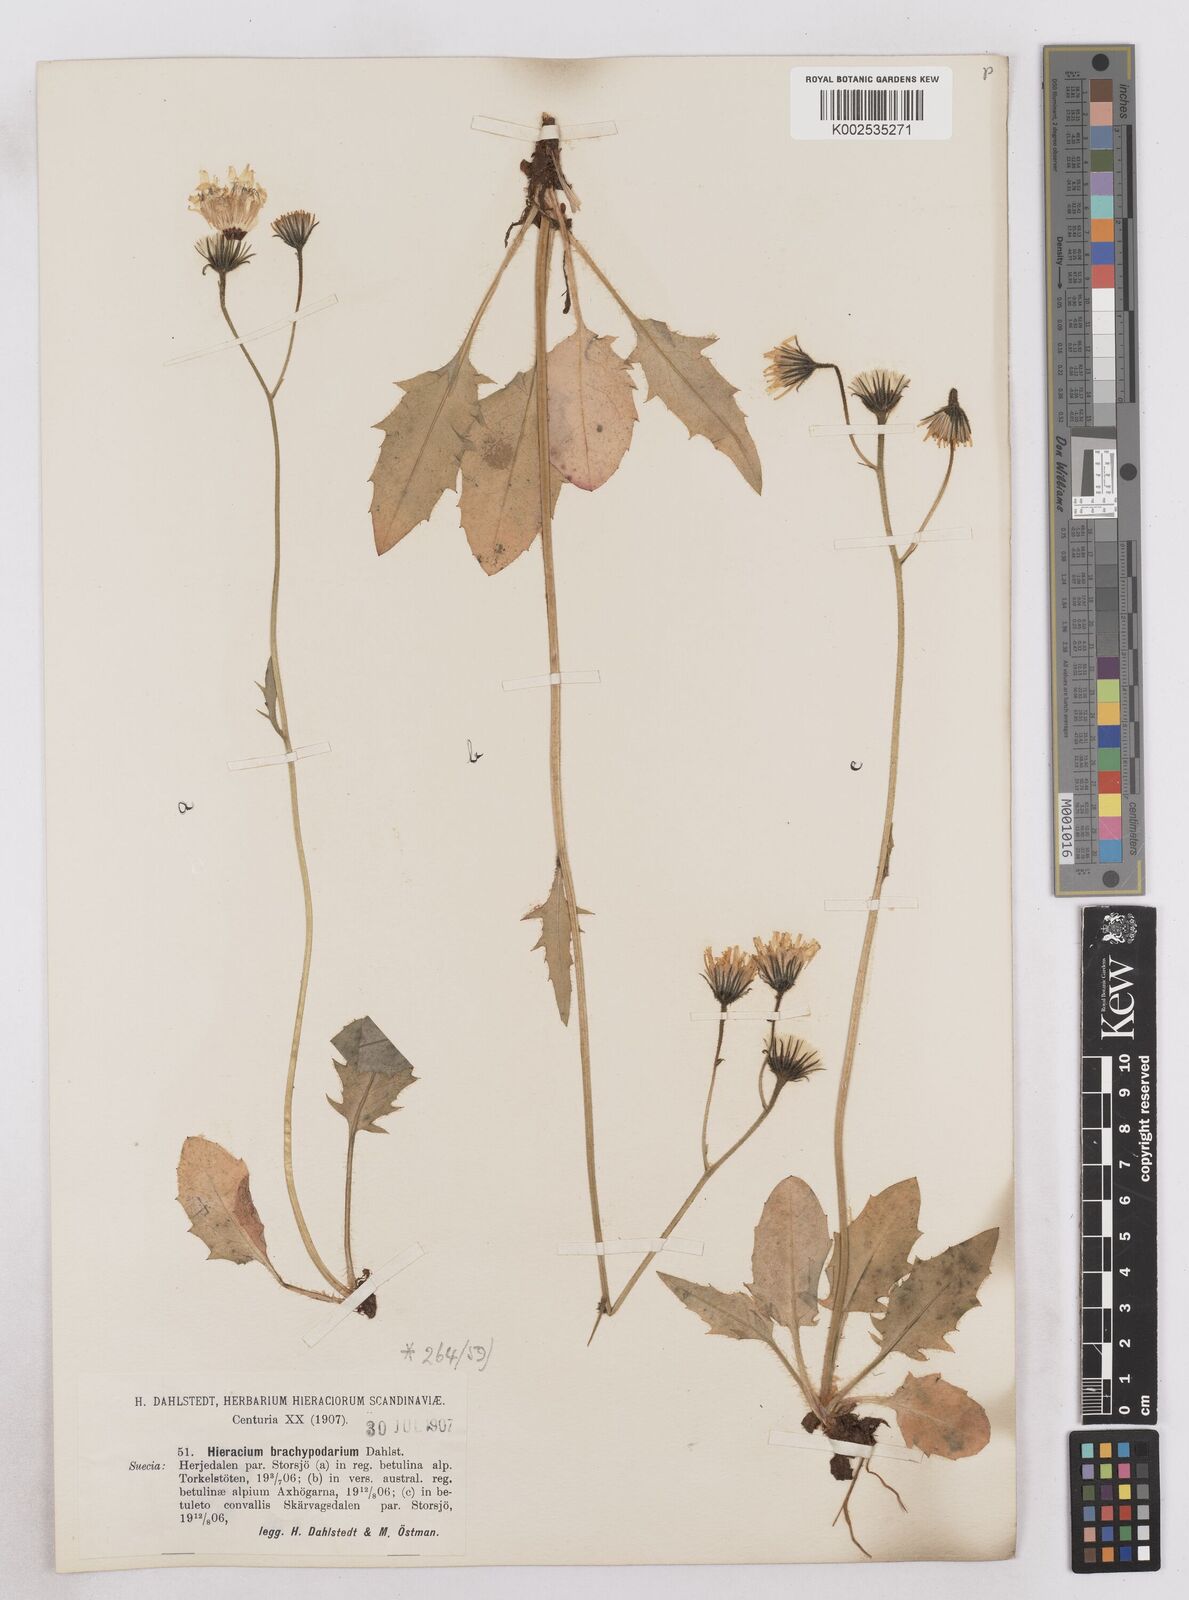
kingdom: Plantae
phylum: Tracheophyta
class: Magnoliopsida
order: Asterales
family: Asteraceae
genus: Hieracium
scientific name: Hieracium brachypodarium
